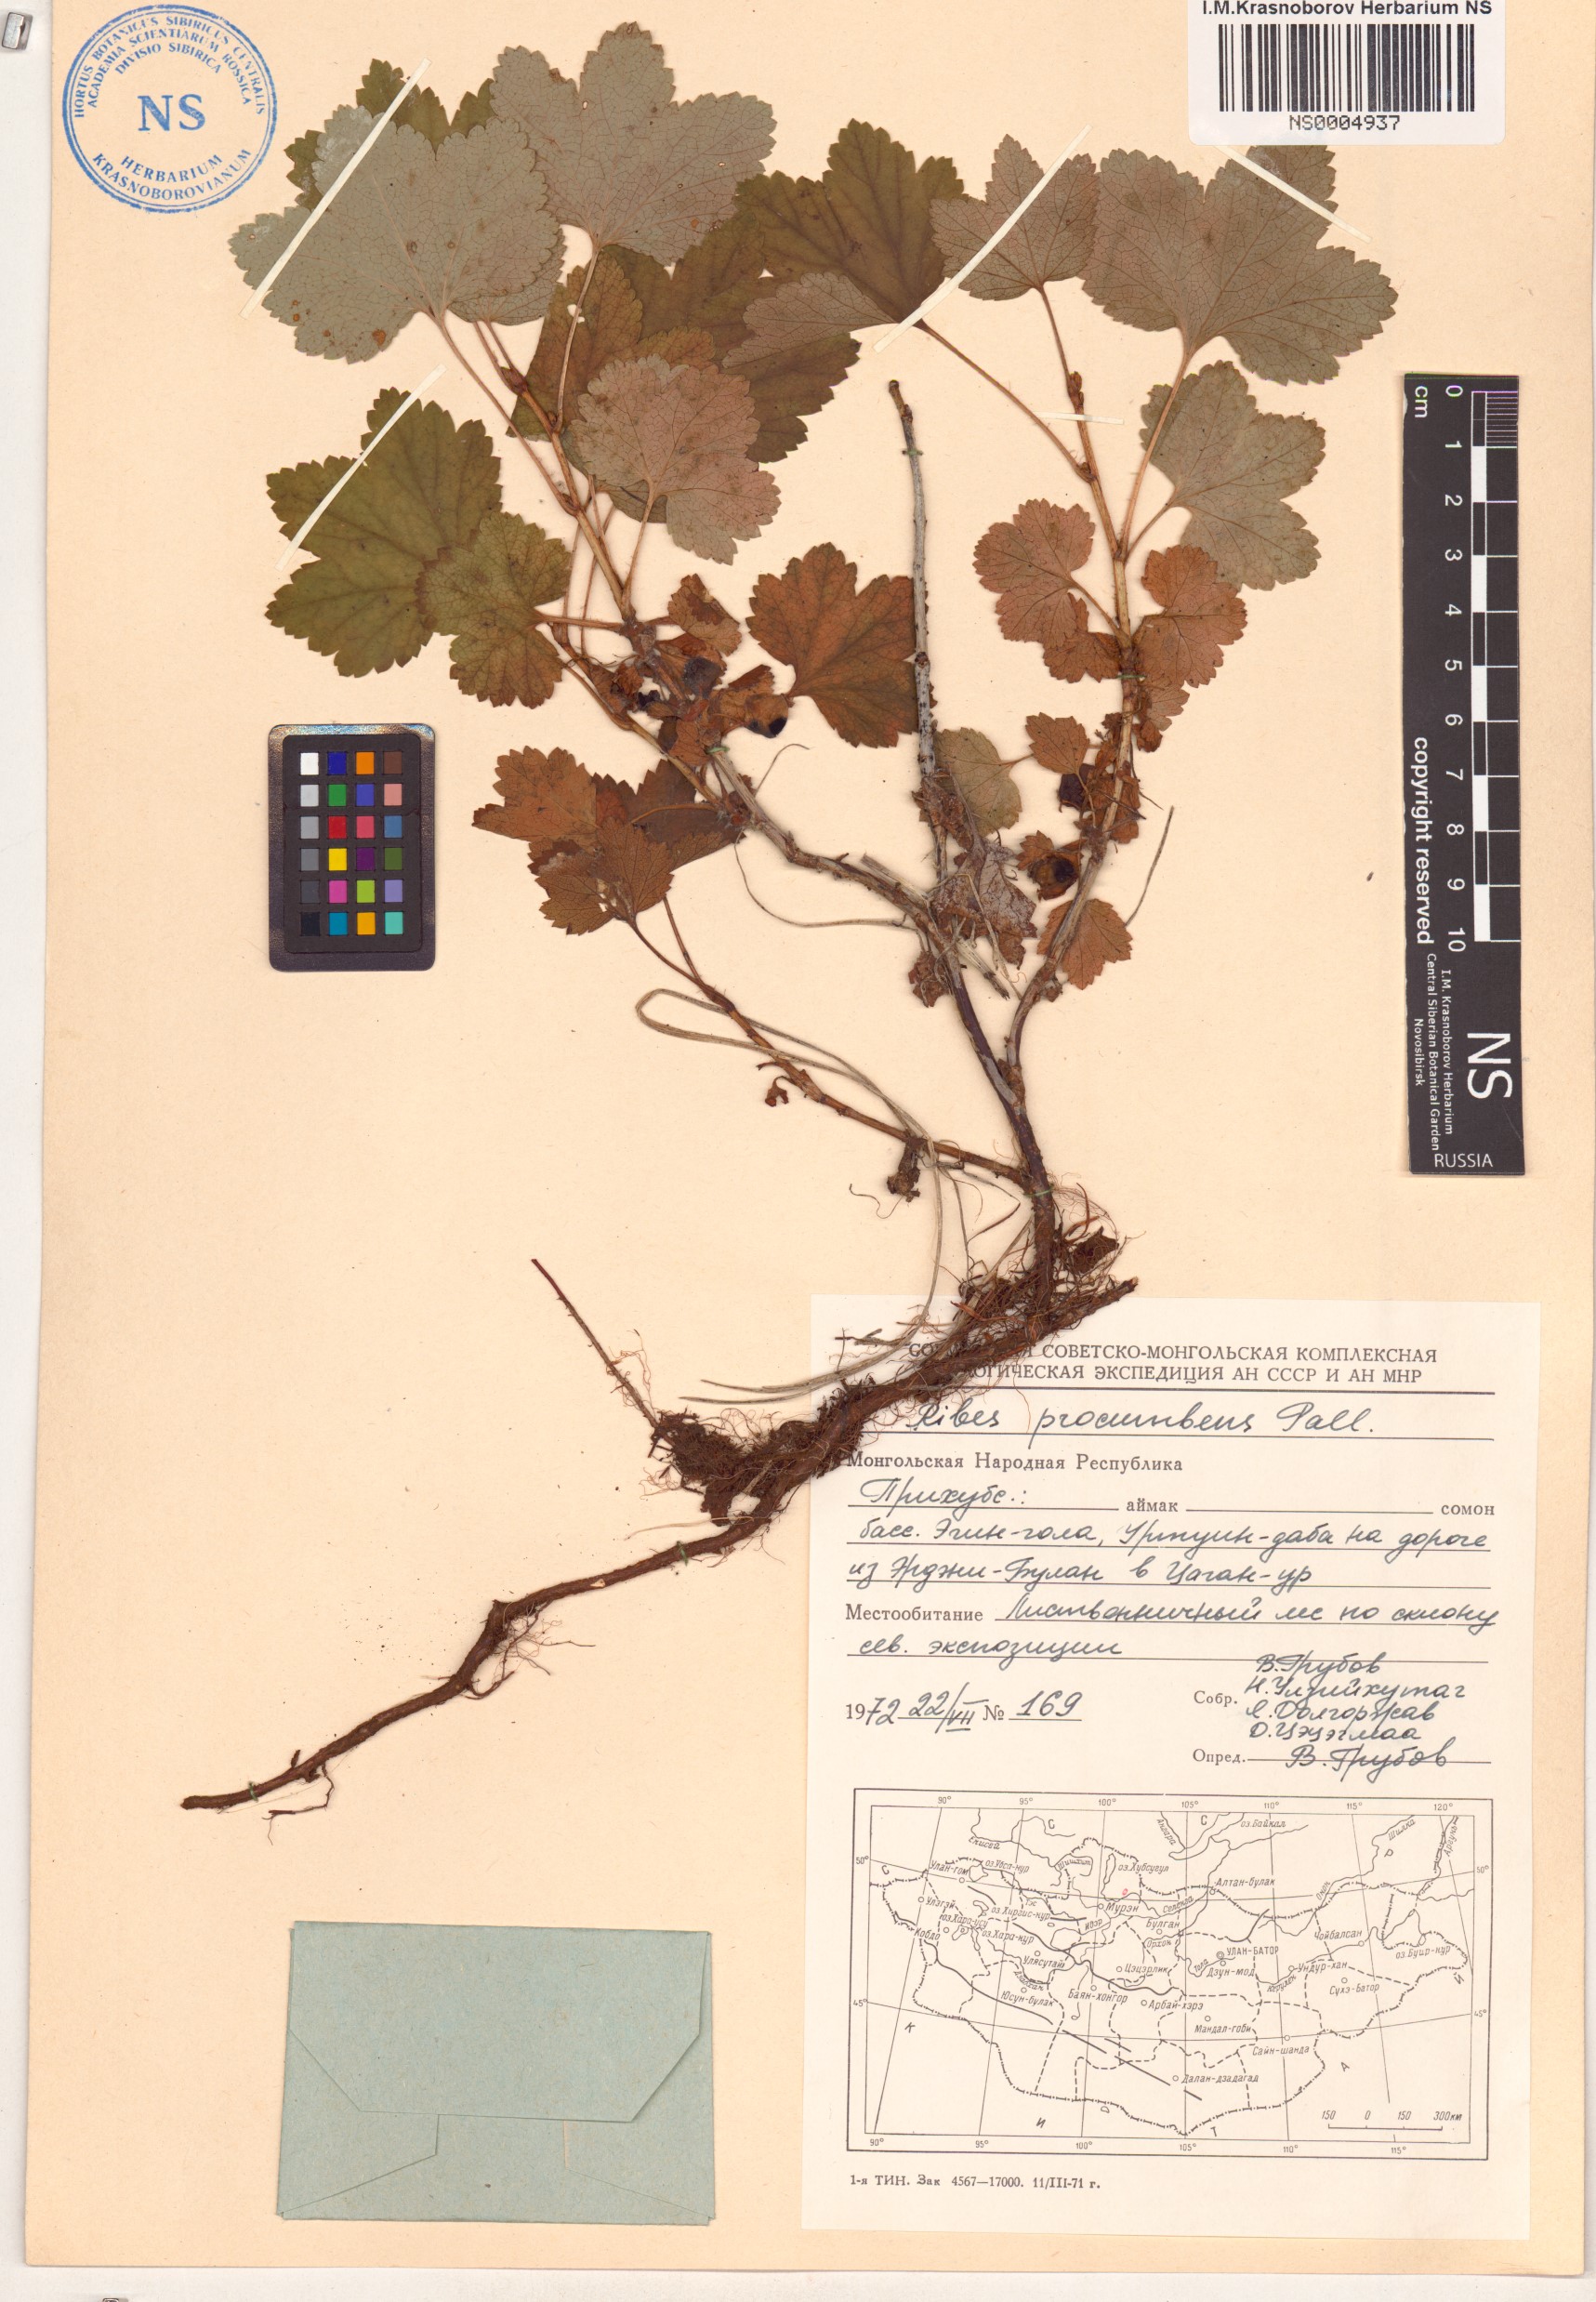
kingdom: Plantae
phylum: Tracheophyta
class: Magnoliopsida
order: Saxifragales
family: Grossulariaceae
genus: Ribes
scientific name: Ribes procumbens
